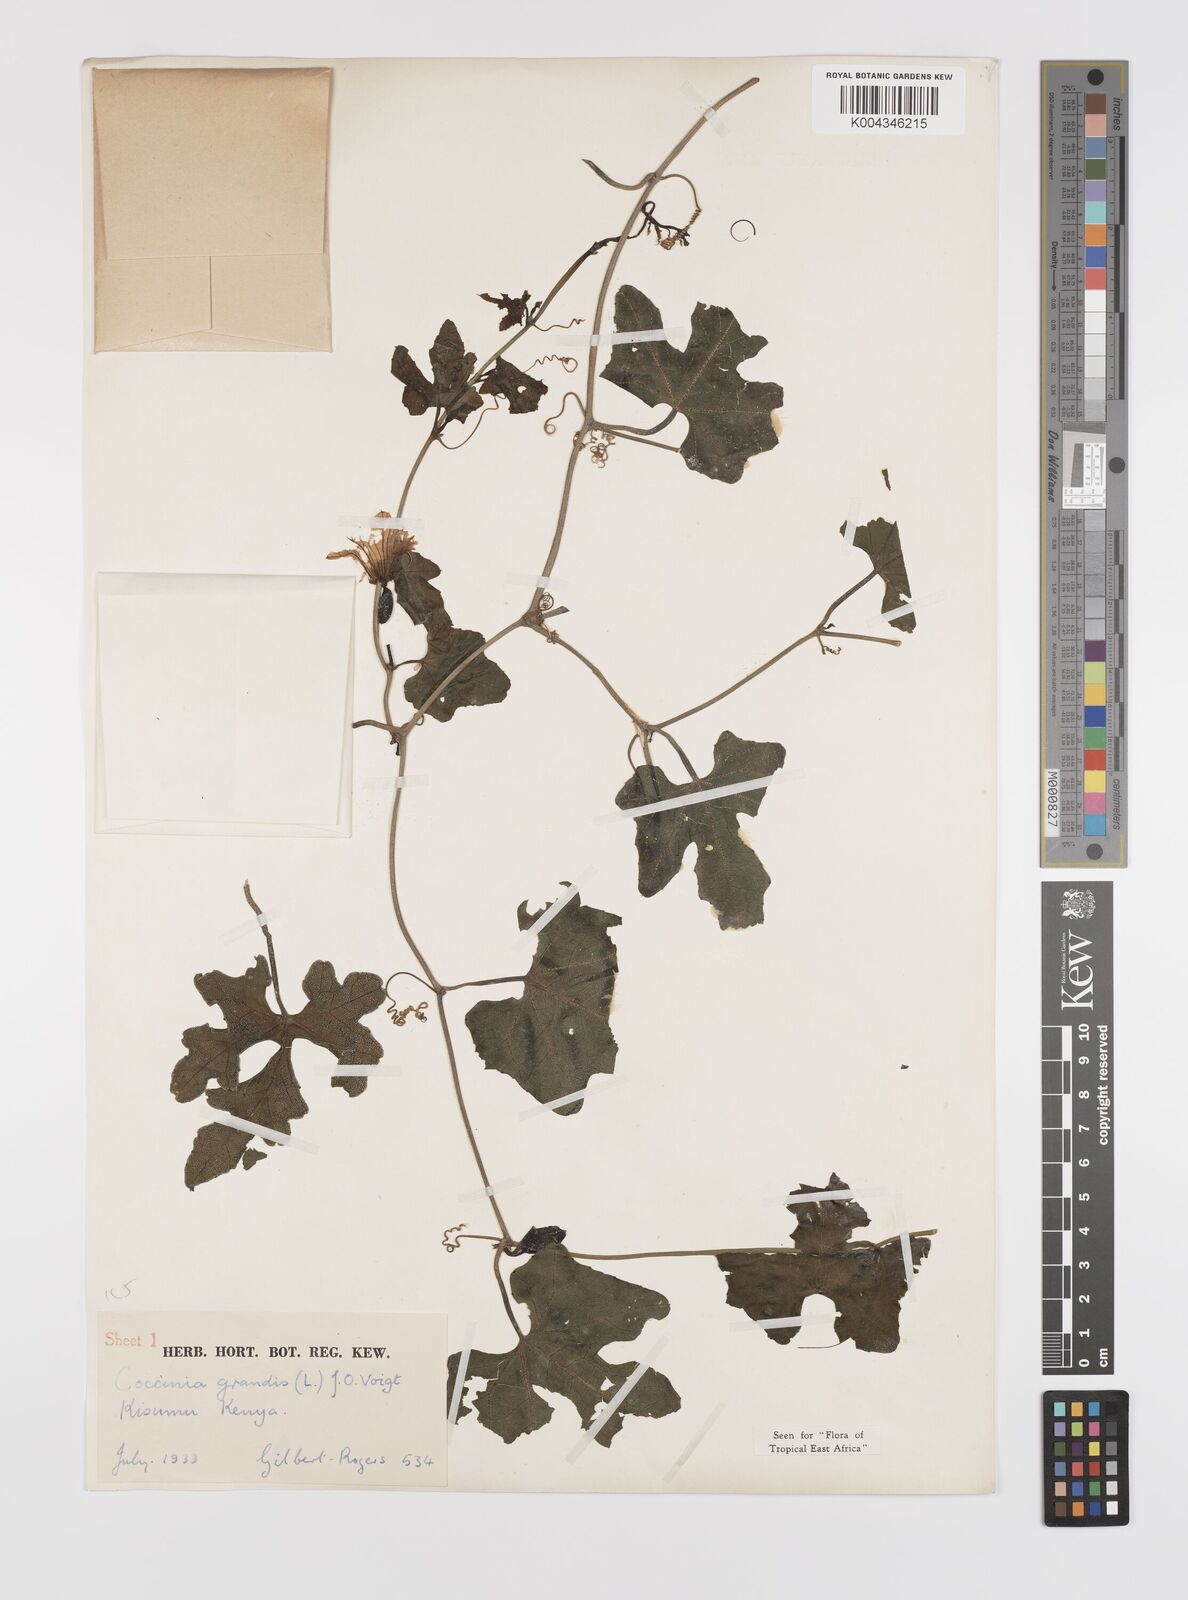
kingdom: Plantae
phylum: Tracheophyta
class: Magnoliopsida
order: Cucurbitales
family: Cucurbitaceae
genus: Coccinia
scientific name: Coccinia grandis
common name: Ivy gourd
